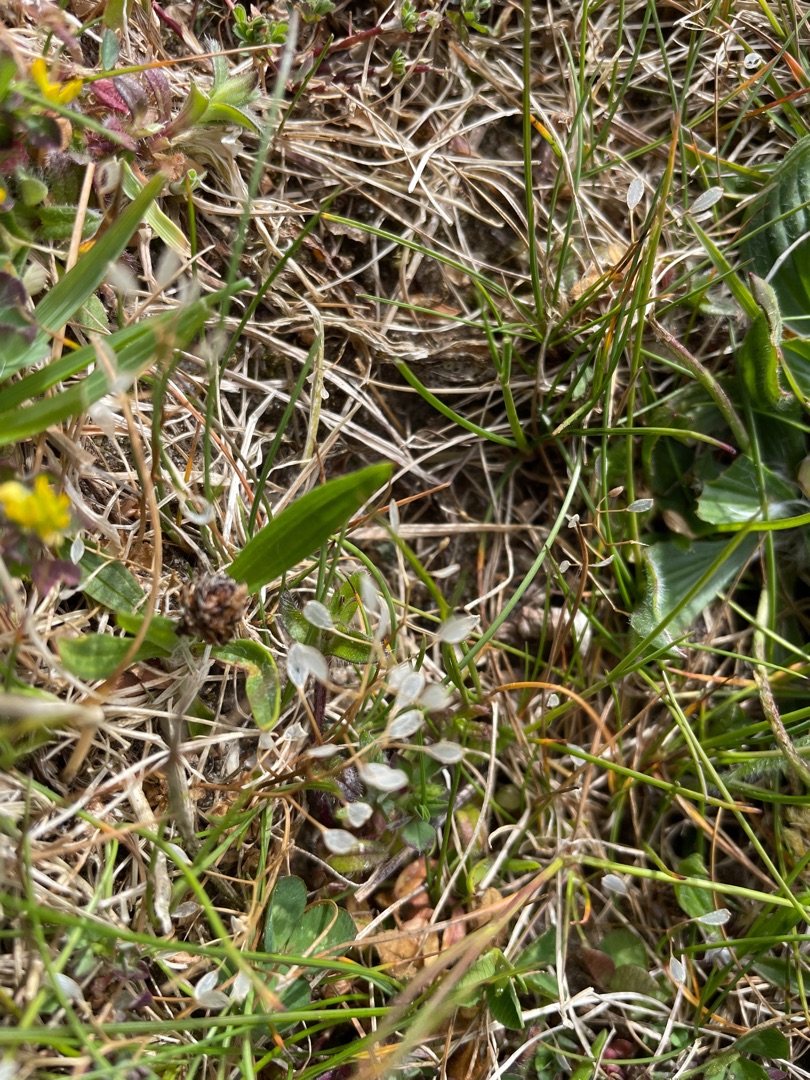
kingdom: Plantae
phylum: Tracheophyta
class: Magnoliopsida
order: Brassicales
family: Brassicaceae
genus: Draba
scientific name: Draba verna
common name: Vår-gæslingeblomst
